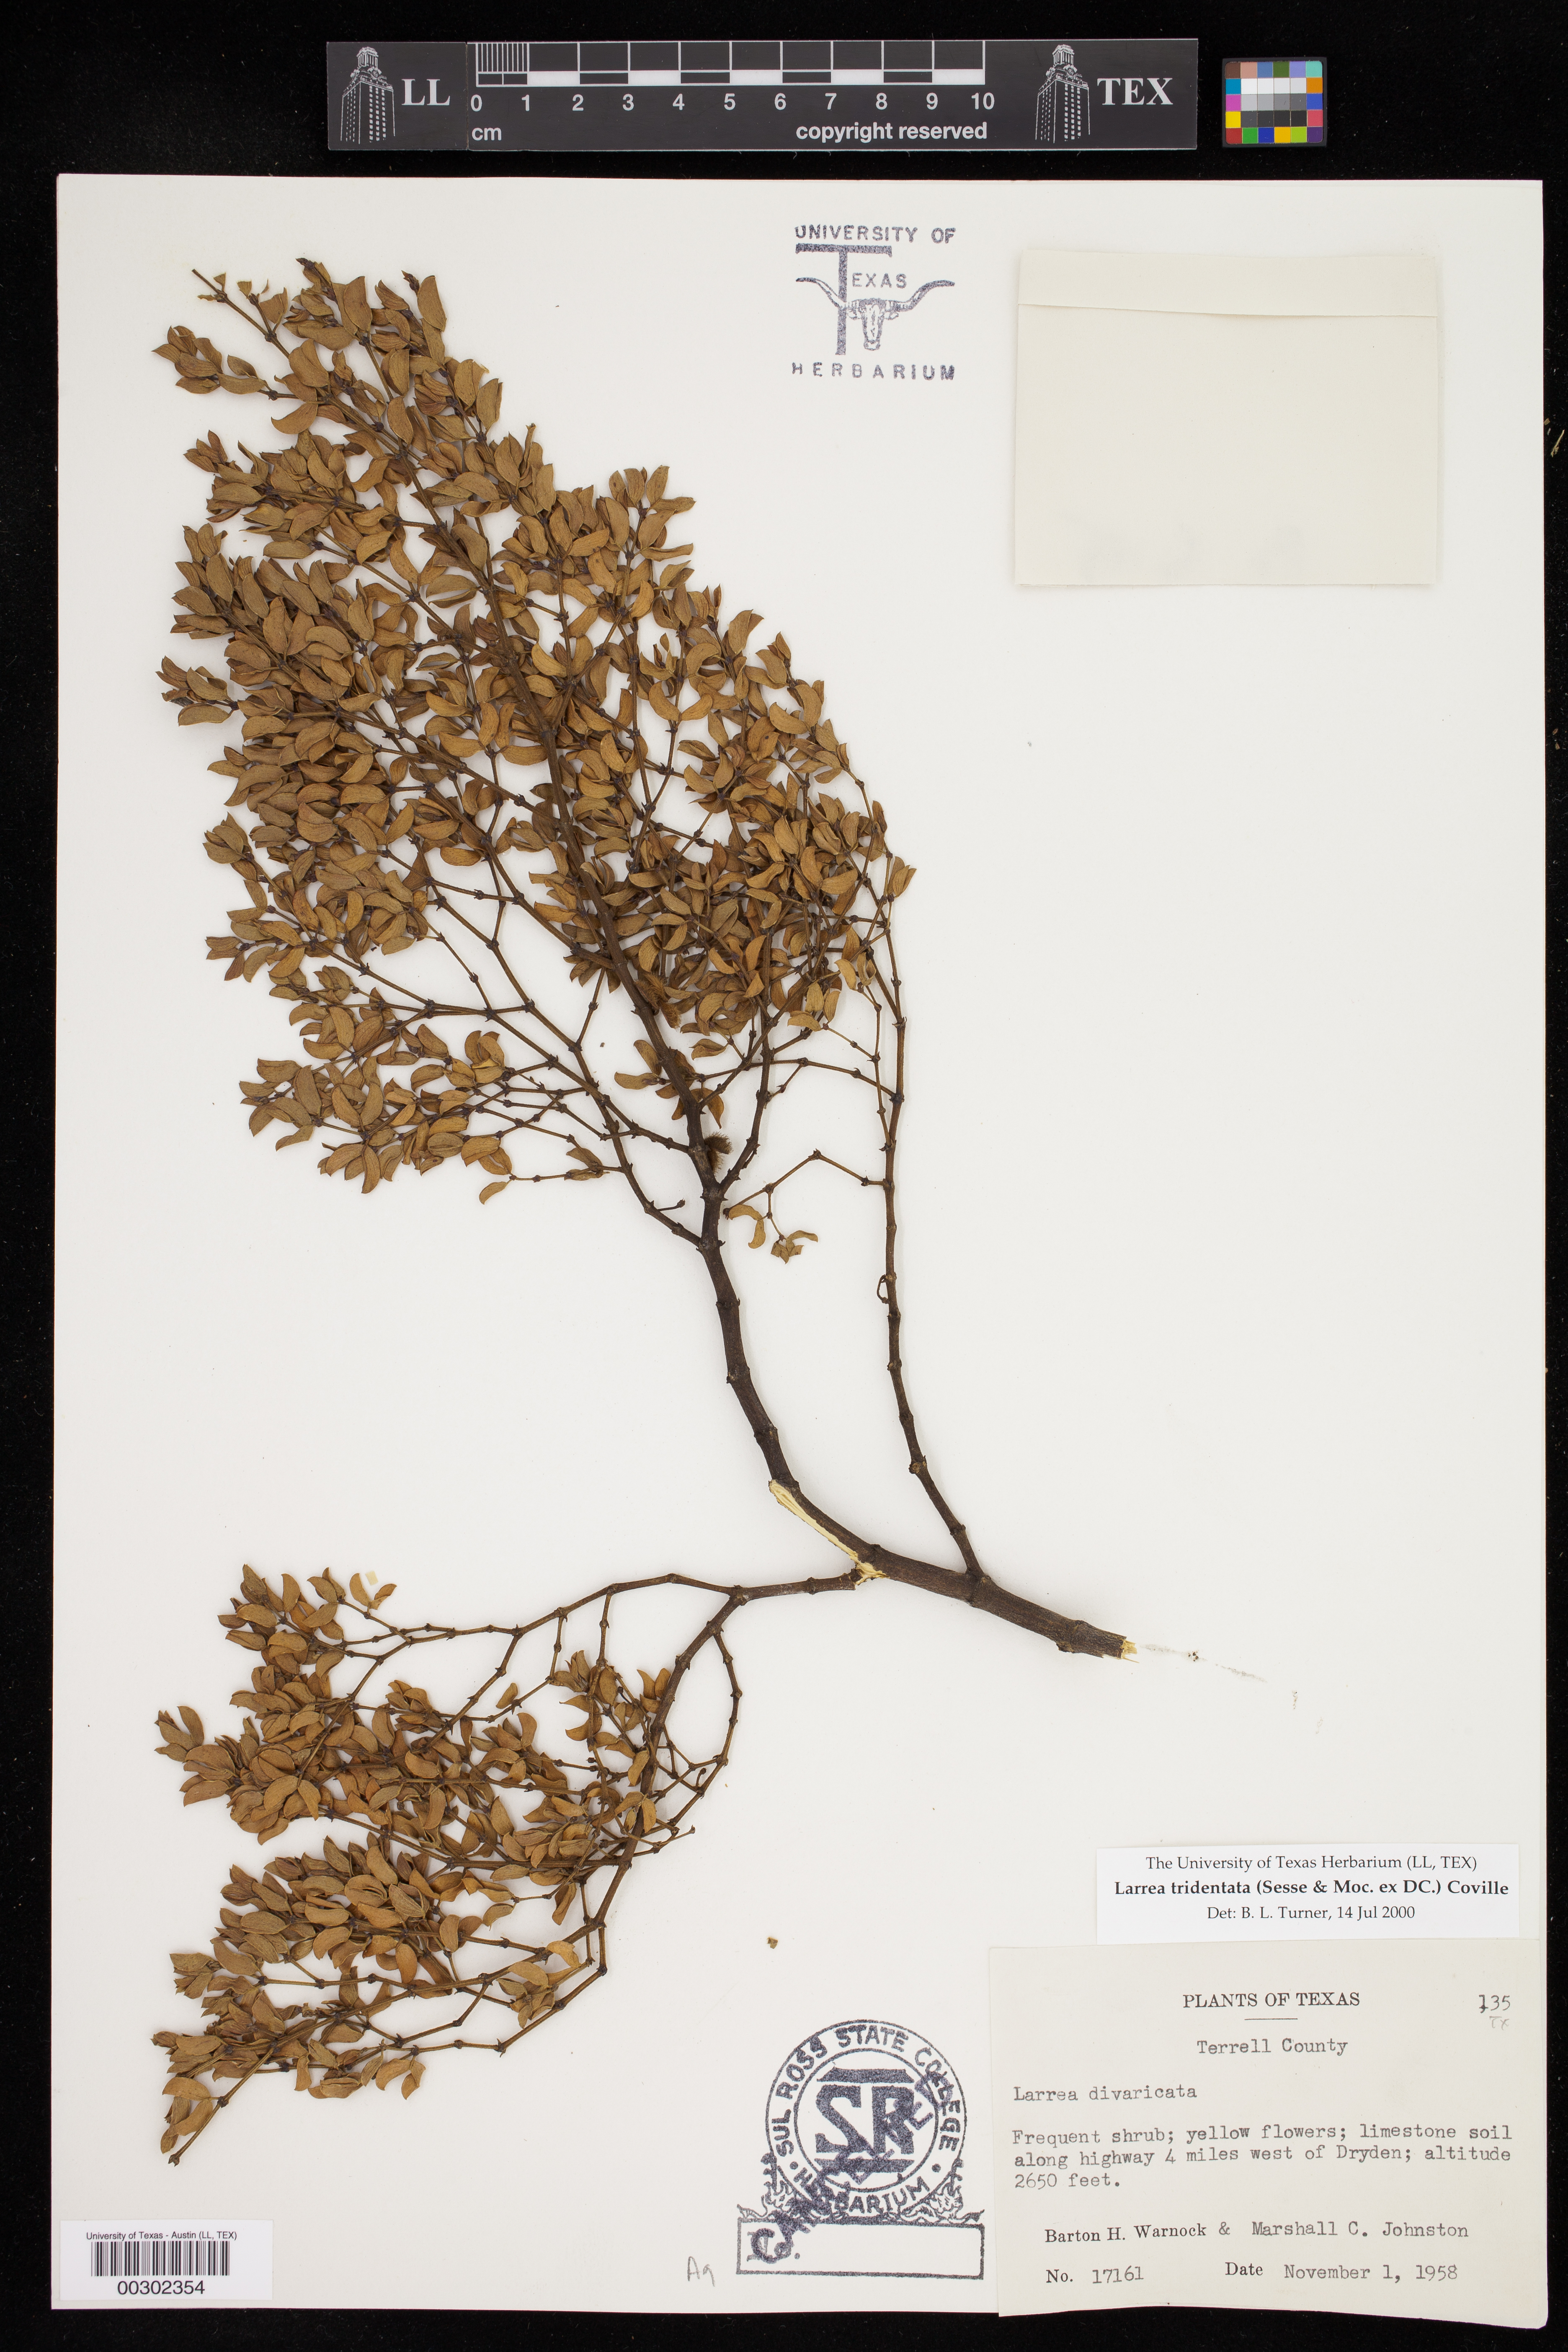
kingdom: Plantae
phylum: Tracheophyta
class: Magnoliopsida
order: Zygophyllales
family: Zygophyllaceae
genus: Larrea
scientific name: Larrea tridentata
